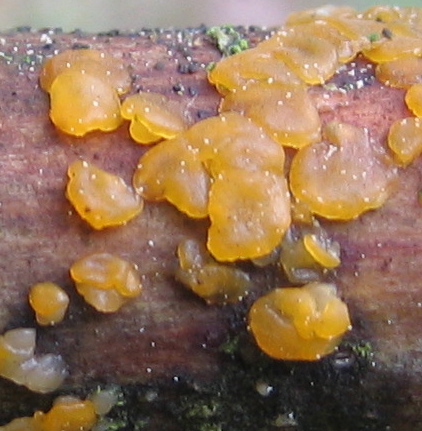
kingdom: Fungi
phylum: Basidiomycota
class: Dacrymycetes
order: Dacrymycetales
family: Dacrymycetaceae
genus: Dacrymyces
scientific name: Dacrymyces
